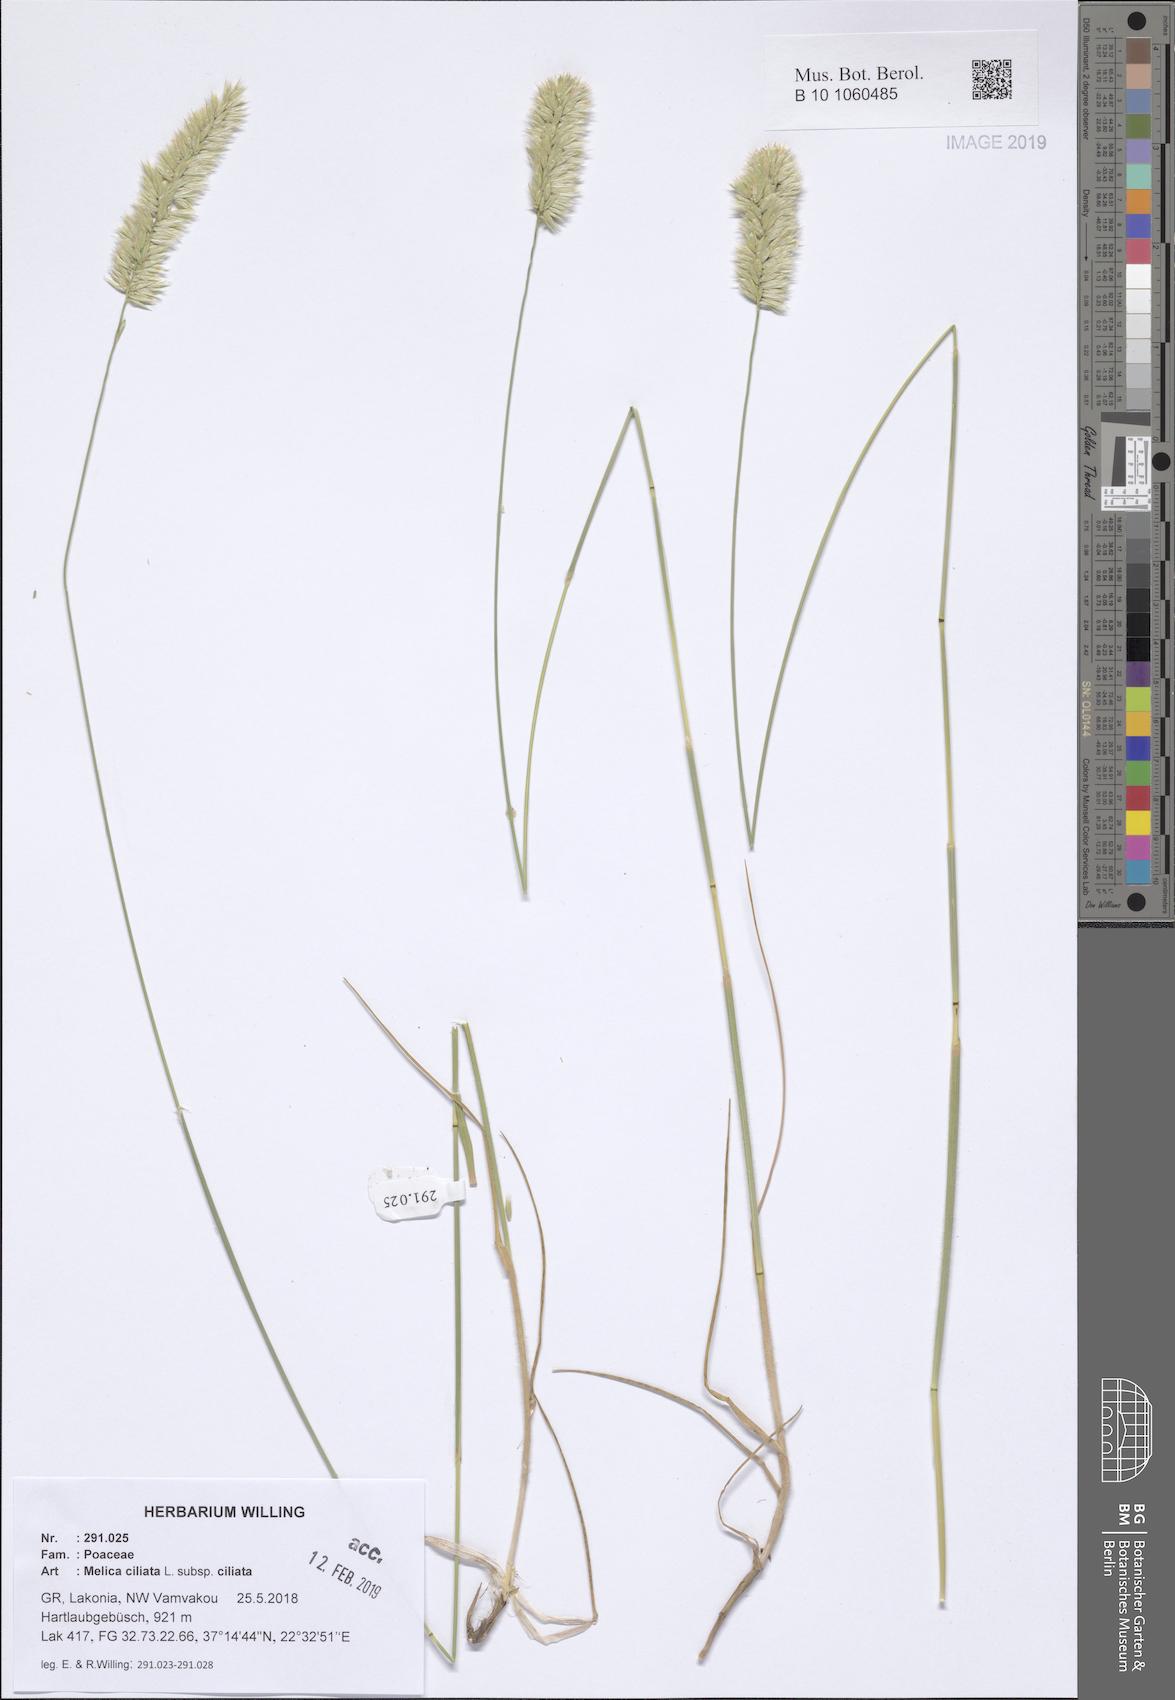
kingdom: Plantae
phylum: Tracheophyta
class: Liliopsida
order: Poales
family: Poaceae
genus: Melica
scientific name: Melica ciliata
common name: Hairy melicgrass
